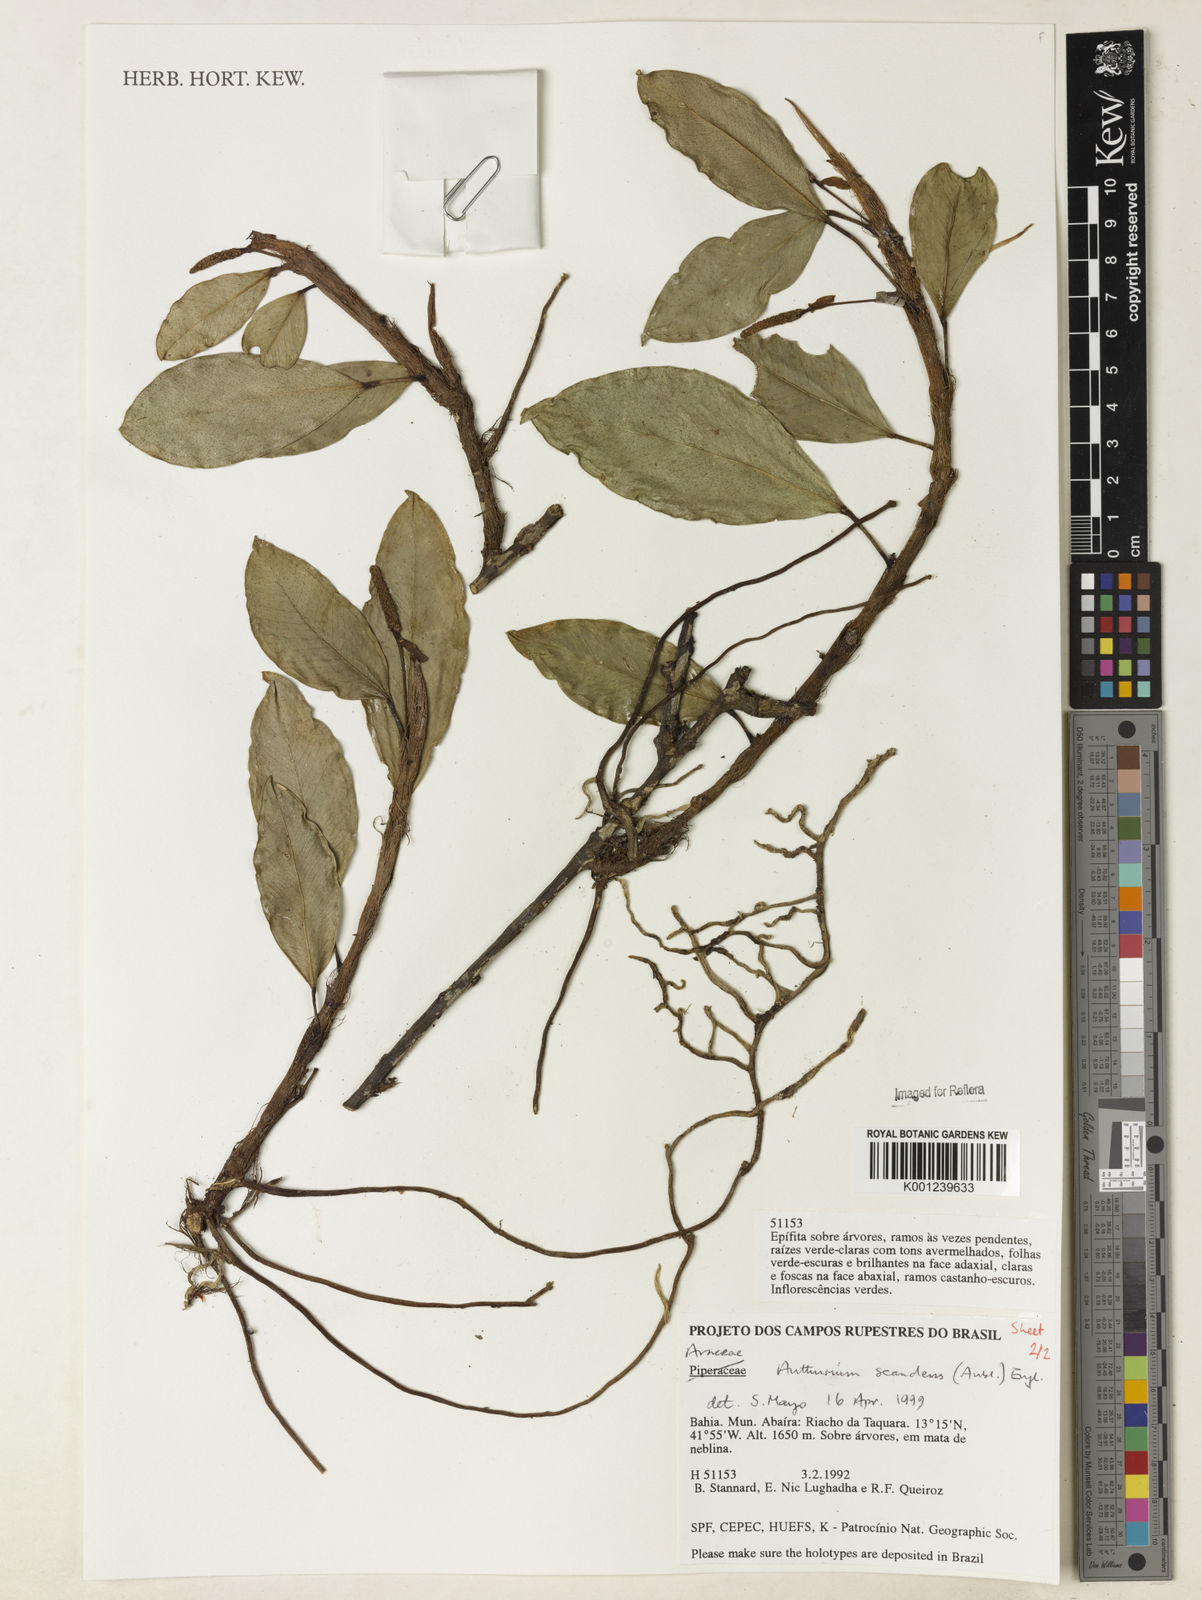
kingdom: Plantae
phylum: Tracheophyta
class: Liliopsida
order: Alismatales
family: Araceae
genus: Anthurium
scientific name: Anthurium scandens
